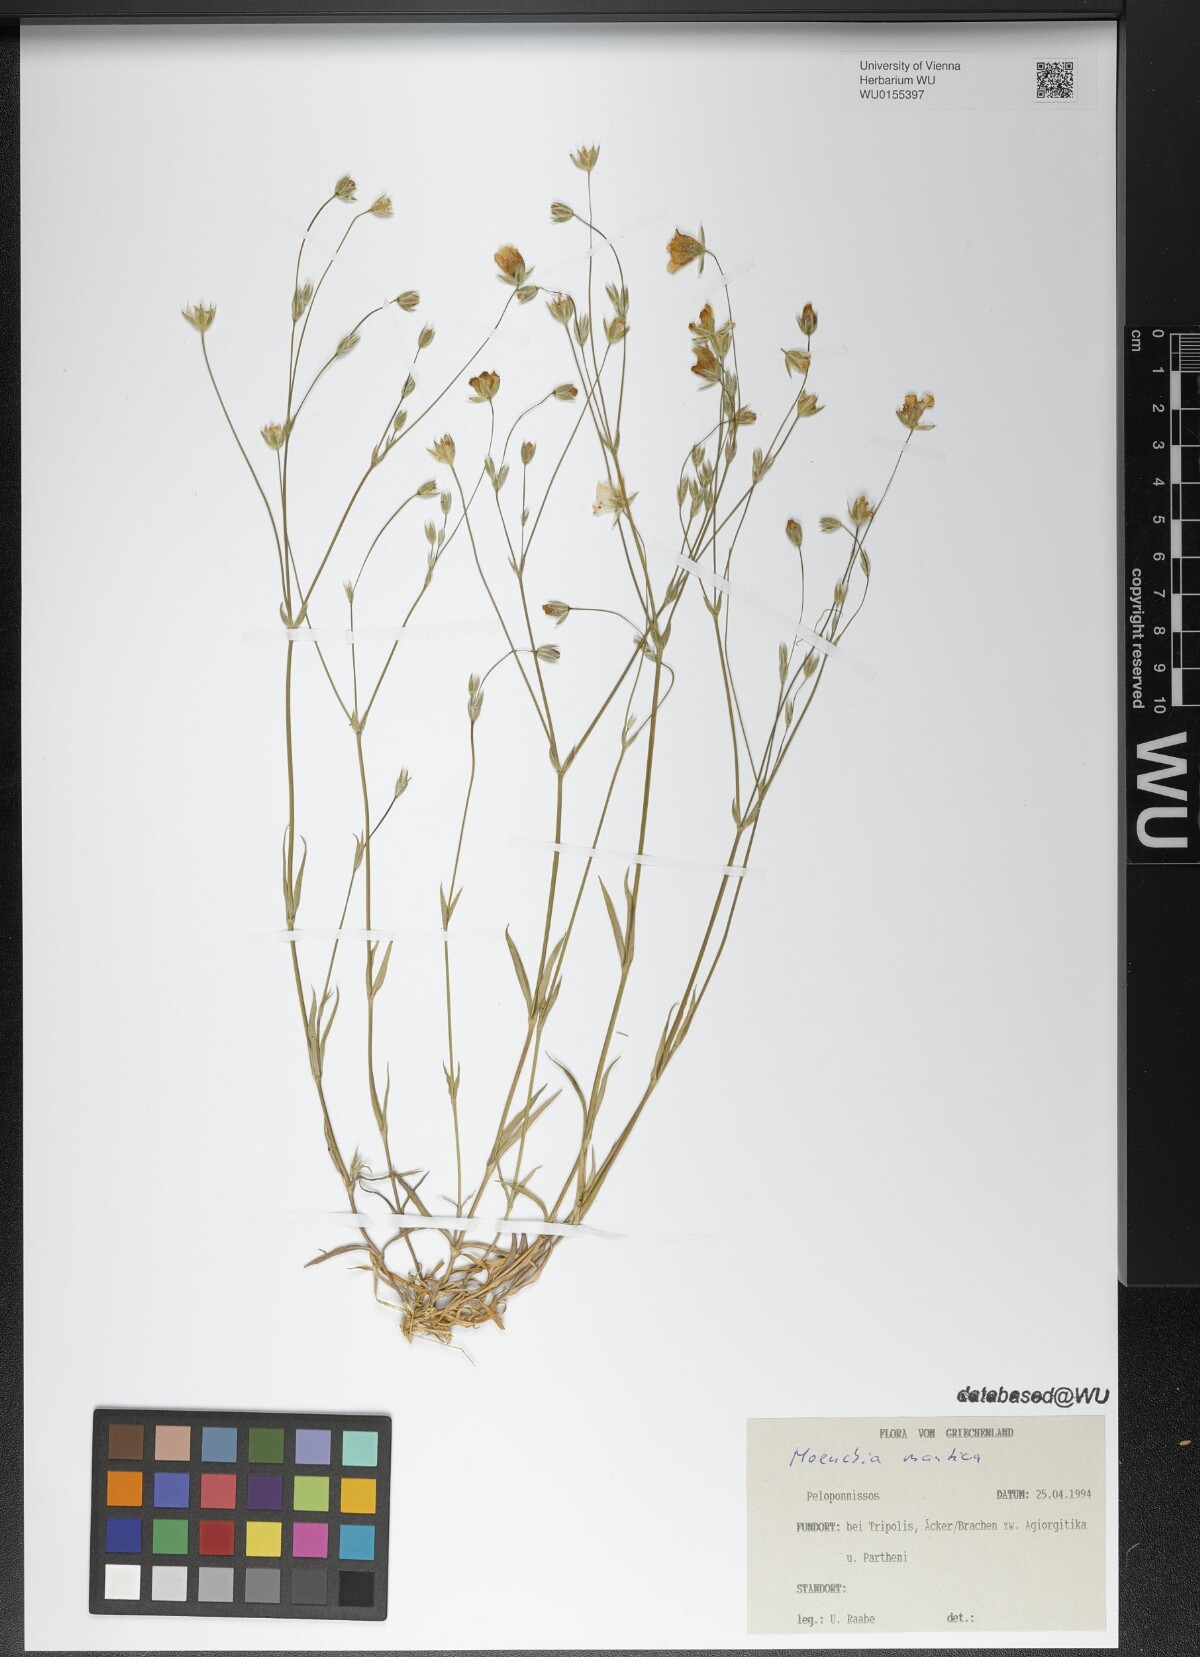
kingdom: Plantae
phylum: Tracheophyta
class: Magnoliopsida
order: Caryophyllales
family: Caryophyllaceae
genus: Moenchia
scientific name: Moenchia mantica
